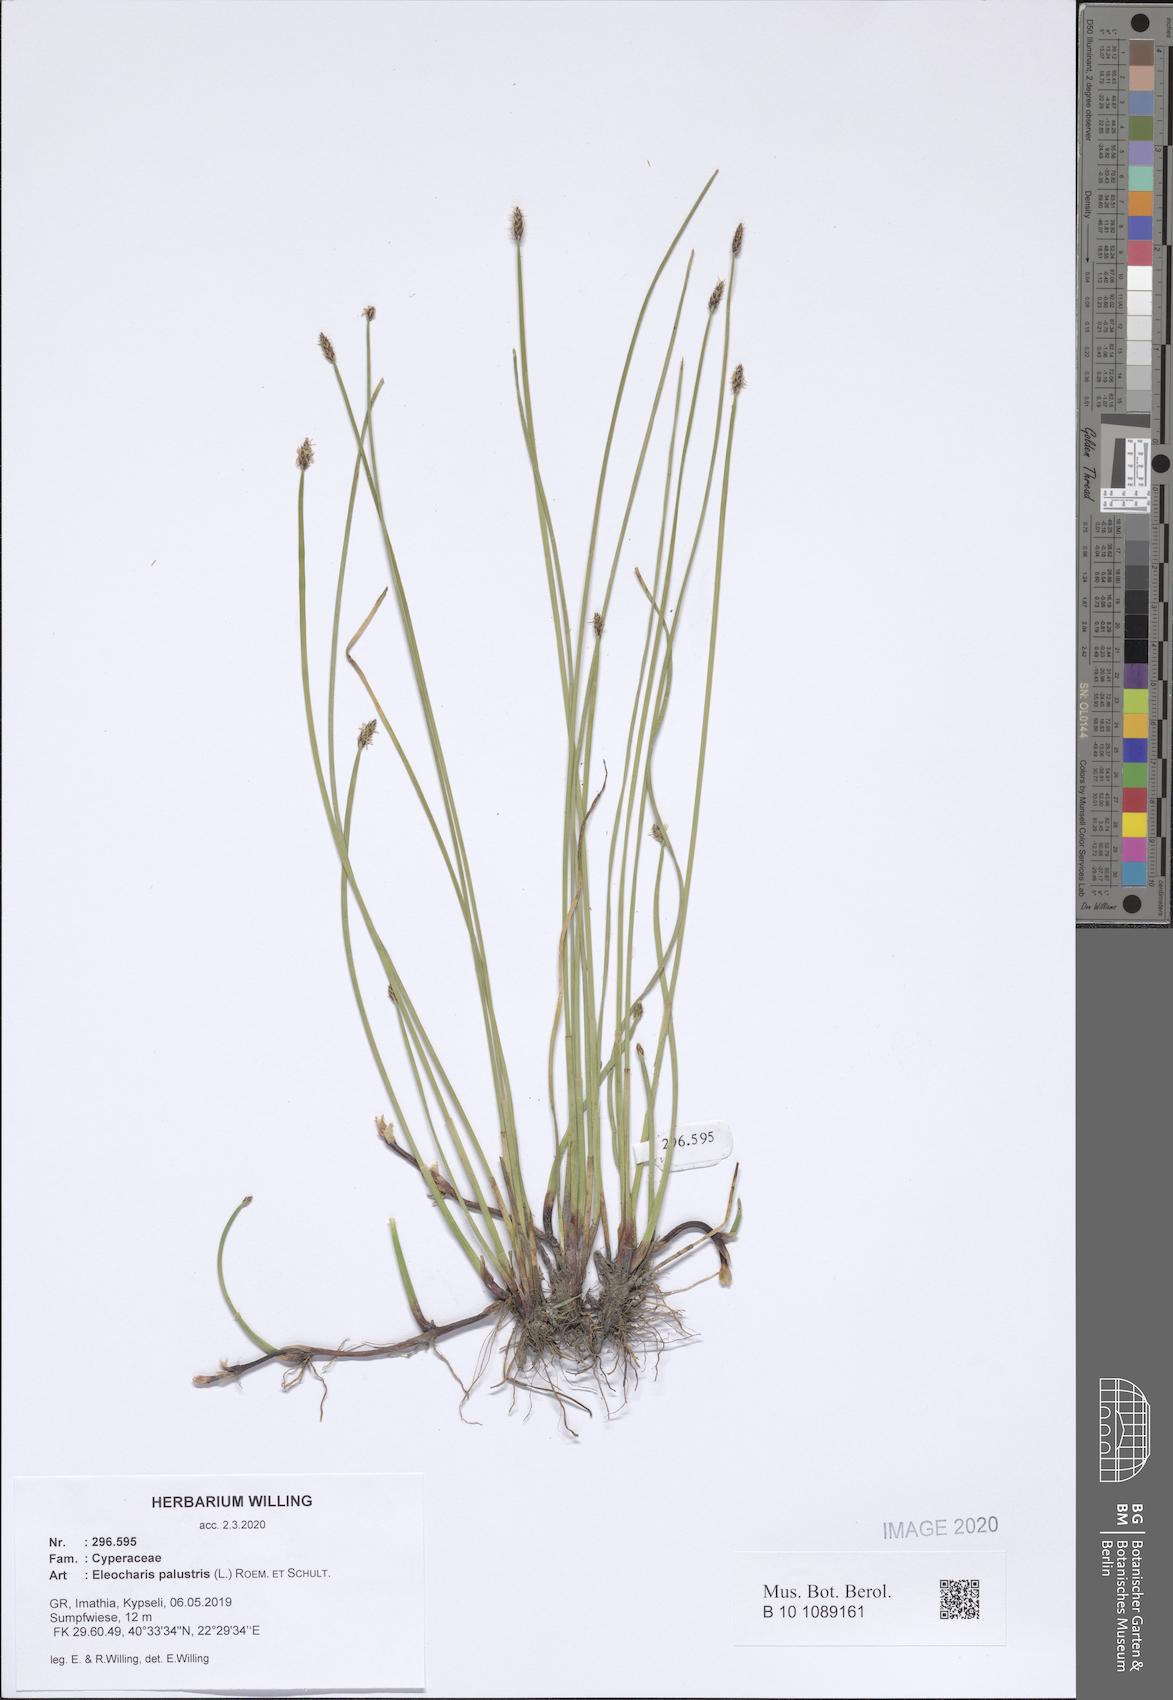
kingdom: Plantae
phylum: Tracheophyta
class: Liliopsida
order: Poales
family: Cyperaceae
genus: Eleocharis
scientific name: Eleocharis palustris
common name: Common spike-rush
